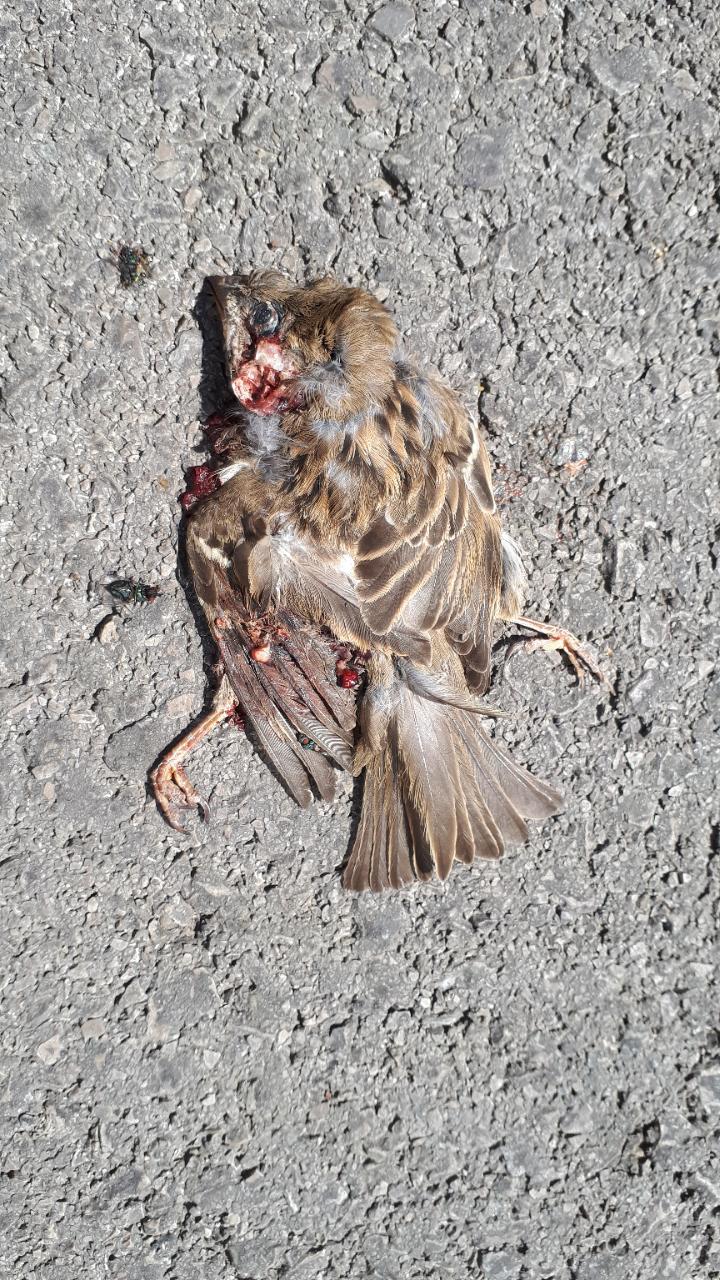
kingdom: Animalia
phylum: Chordata
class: Aves
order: Passeriformes
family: Passeridae
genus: Passer
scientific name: Passer
